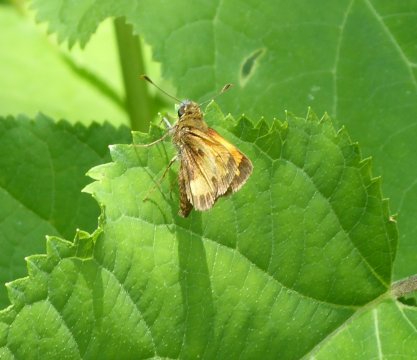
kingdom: Animalia
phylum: Arthropoda
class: Insecta
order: Lepidoptera
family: Hesperiidae
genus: Lon
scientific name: Lon hobomok
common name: Hobomok Skipper
